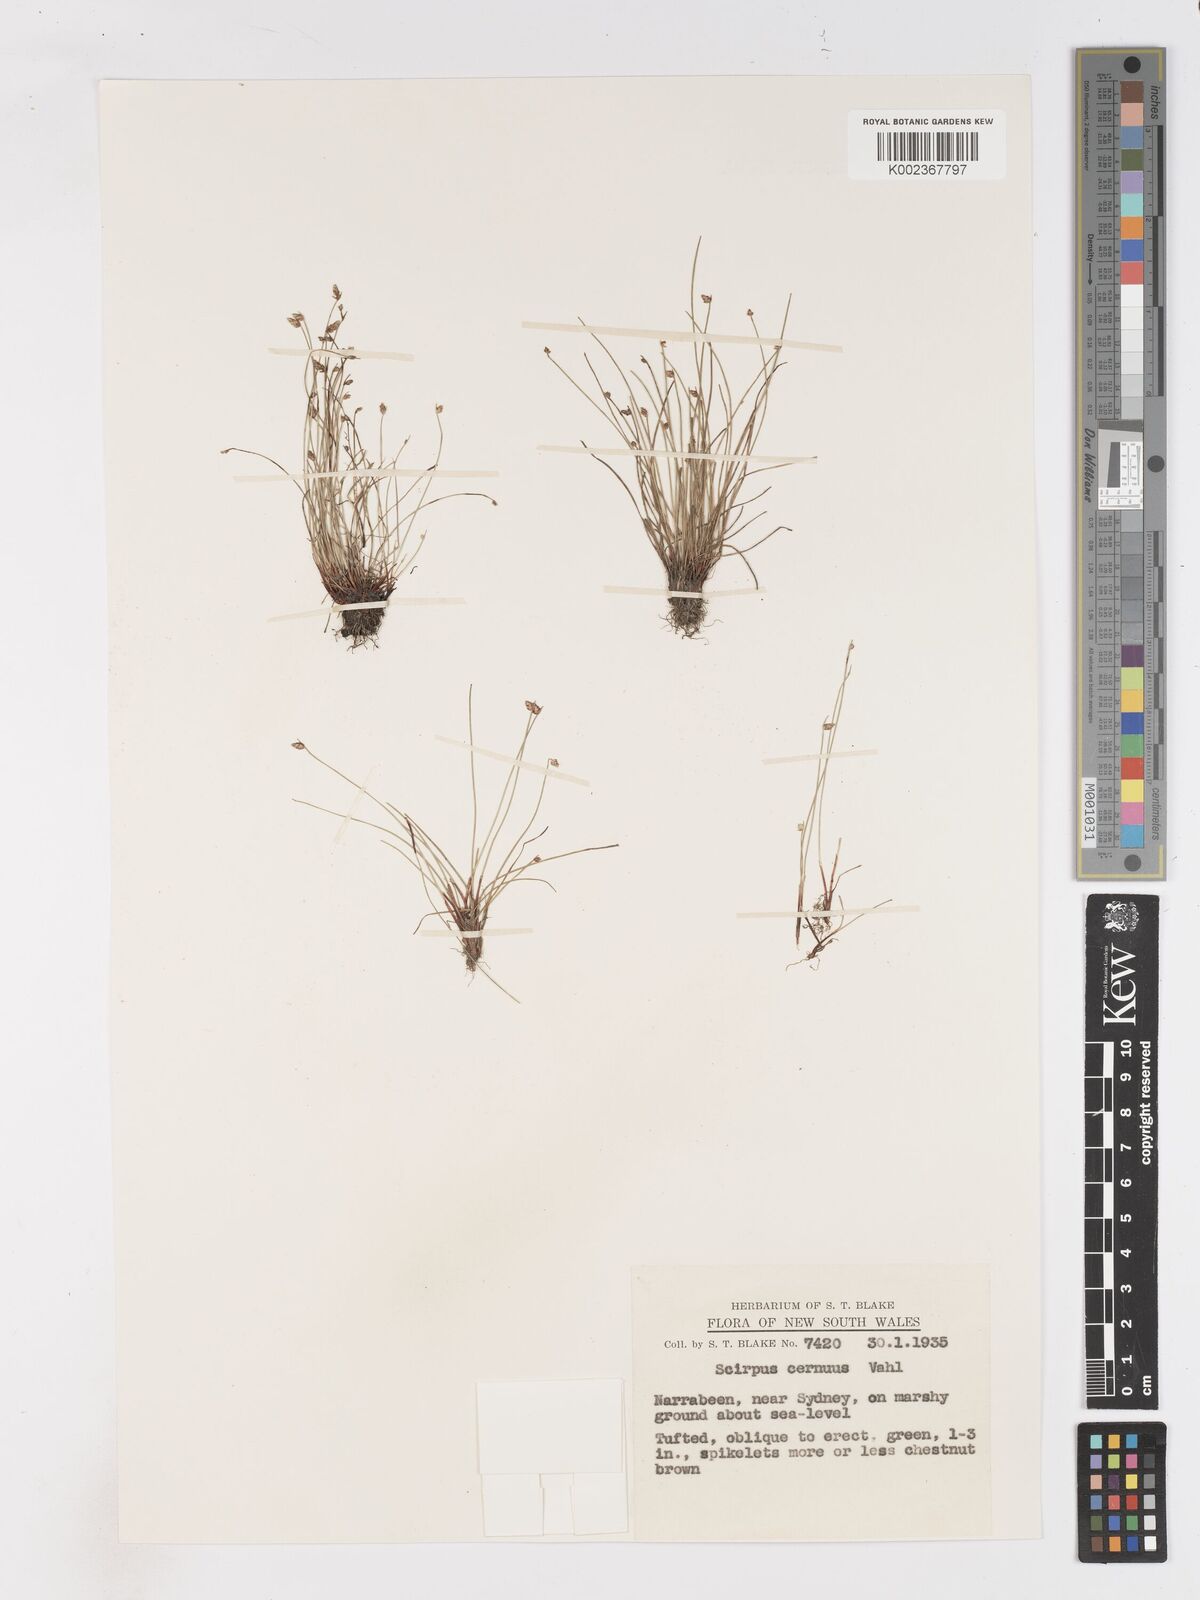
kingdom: Plantae
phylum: Tracheophyta
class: Liliopsida
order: Poales
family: Cyperaceae
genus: Isolepis
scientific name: Isolepis cernua
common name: Slender club-rush
